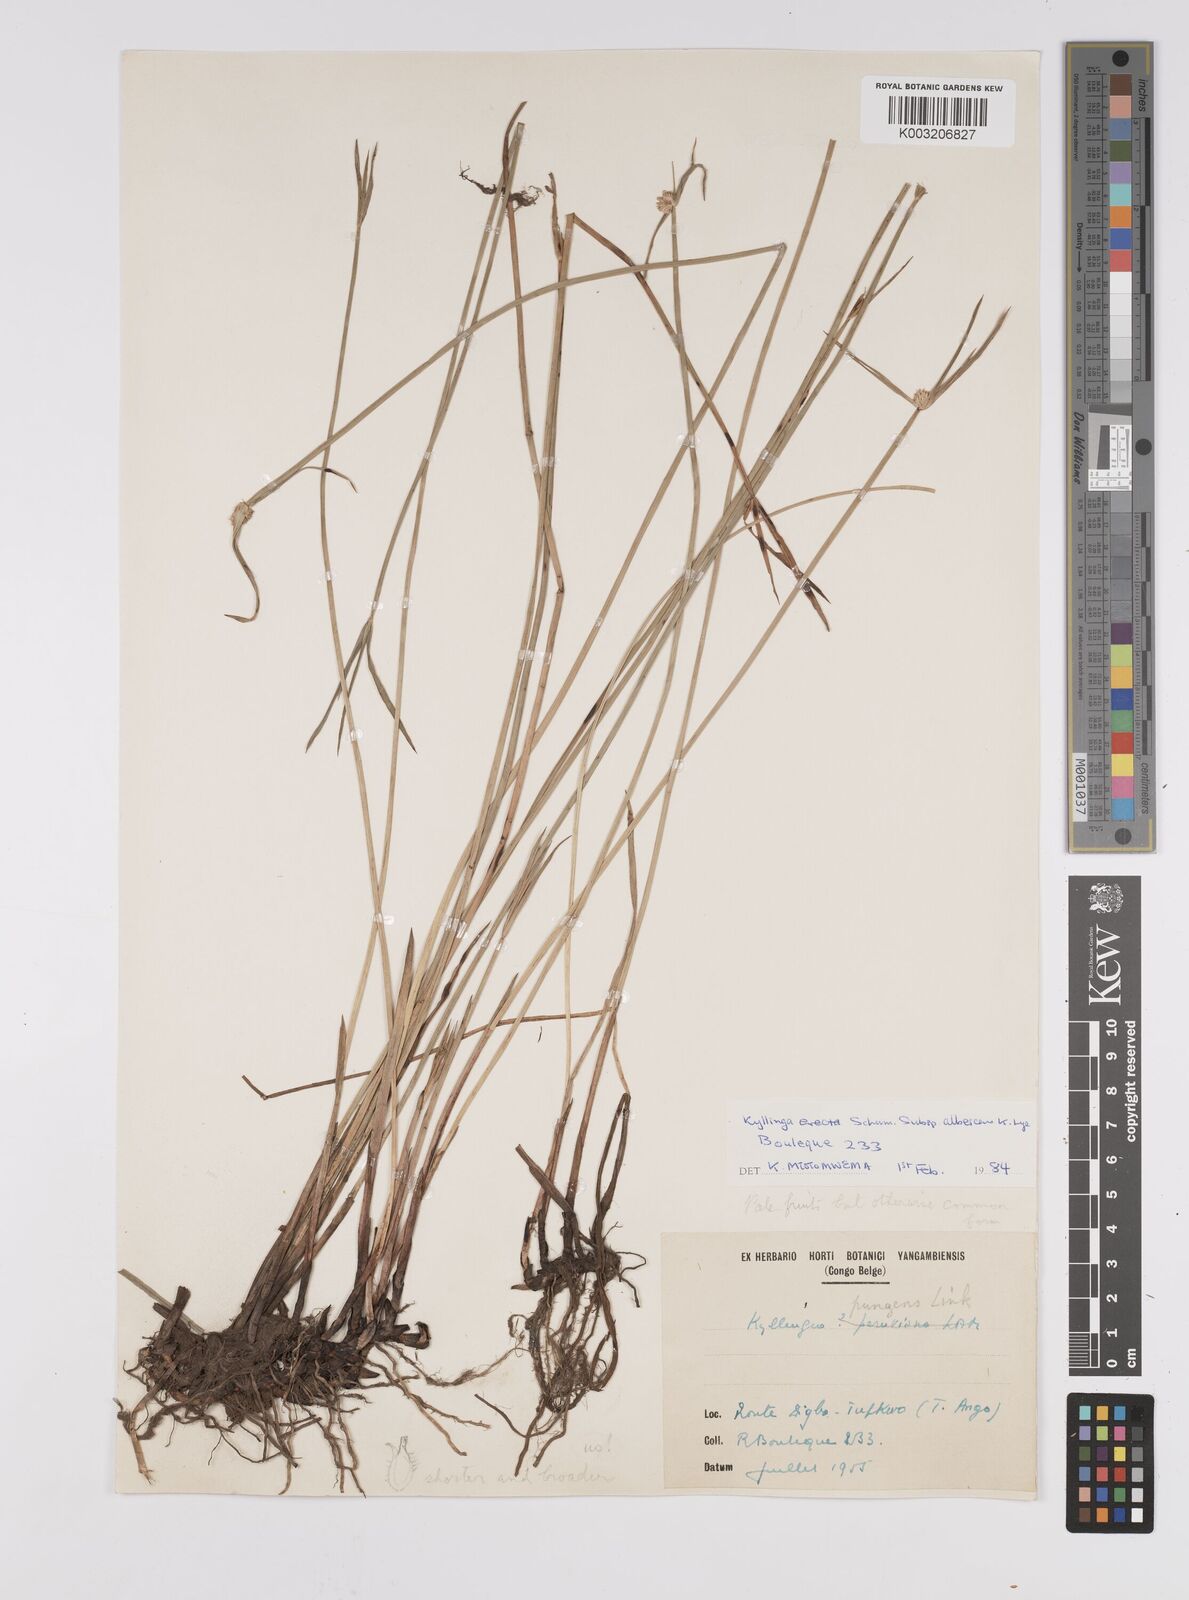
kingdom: Plantae
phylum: Tracheophyta
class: Liliopsida
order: Poales
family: Cyperaceae
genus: Cyperus
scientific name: Cyperus erectus
